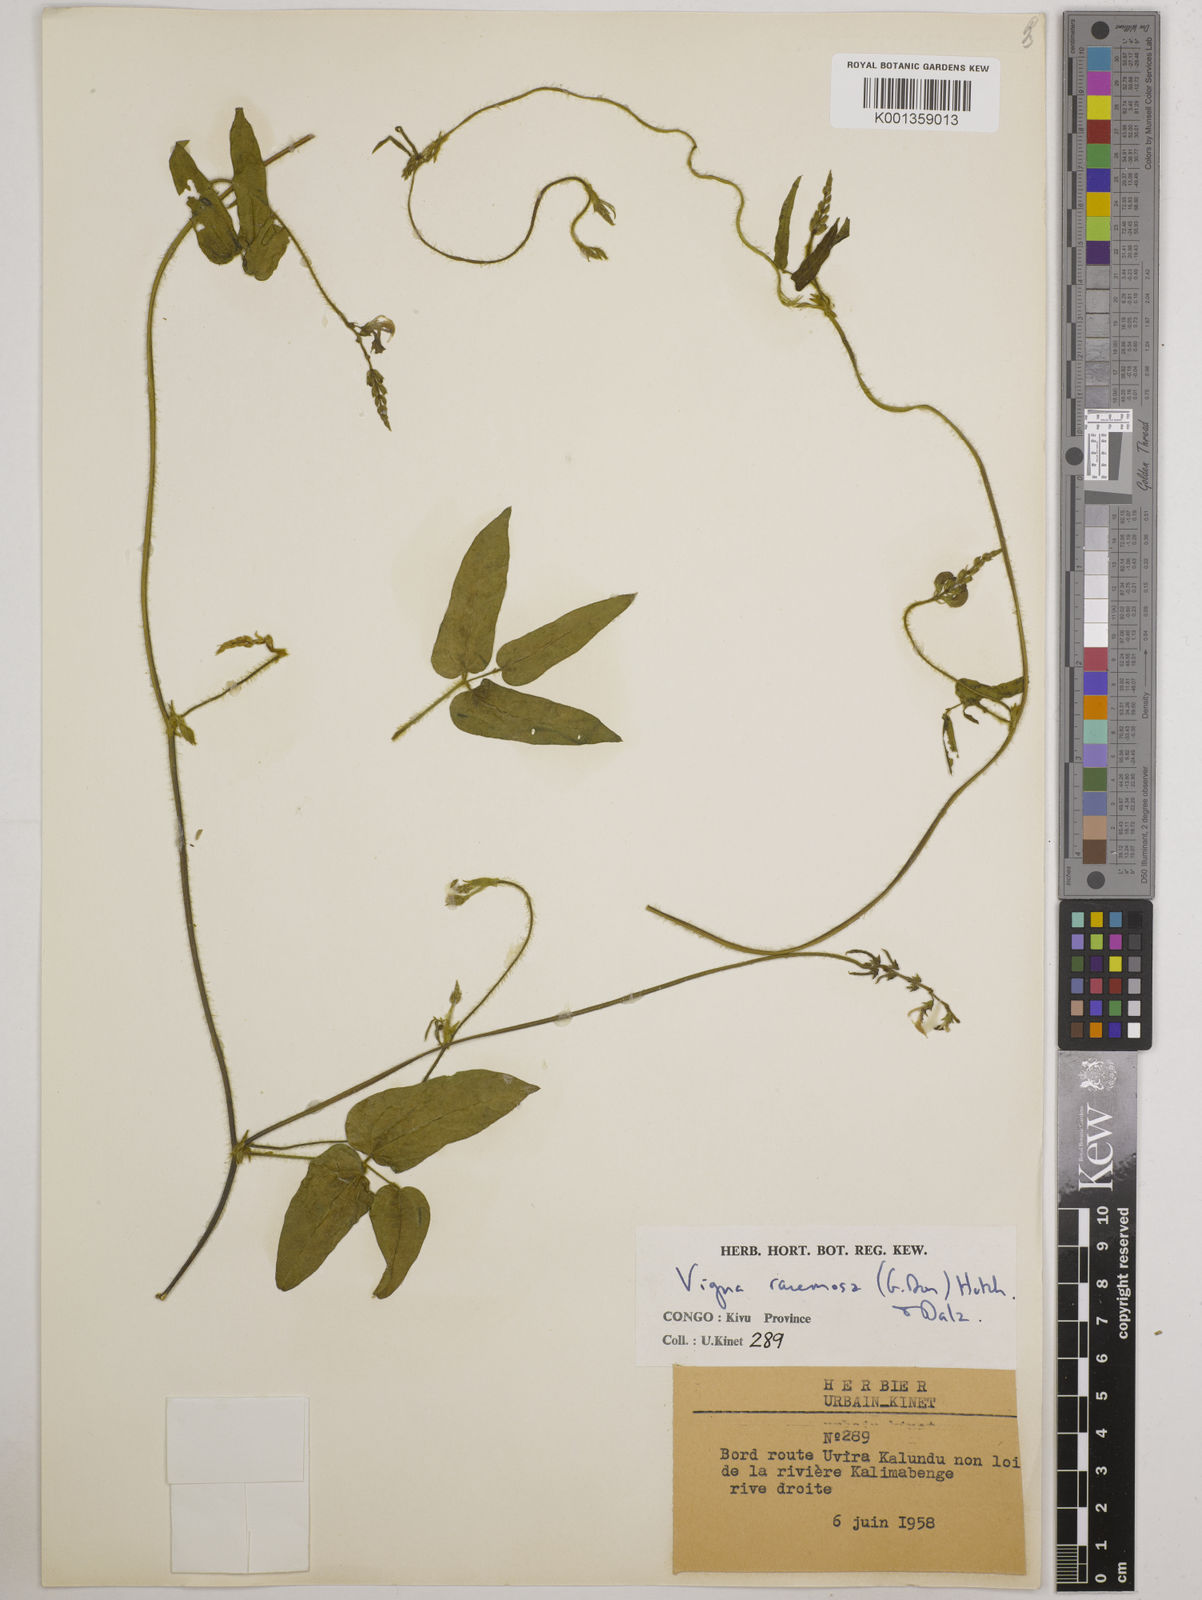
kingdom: Plantae
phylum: Tracheophyta
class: Magnoliopsida
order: Fabales
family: Fabaceae
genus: Vigna
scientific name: Vigna racemosa
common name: Beans not eaten
